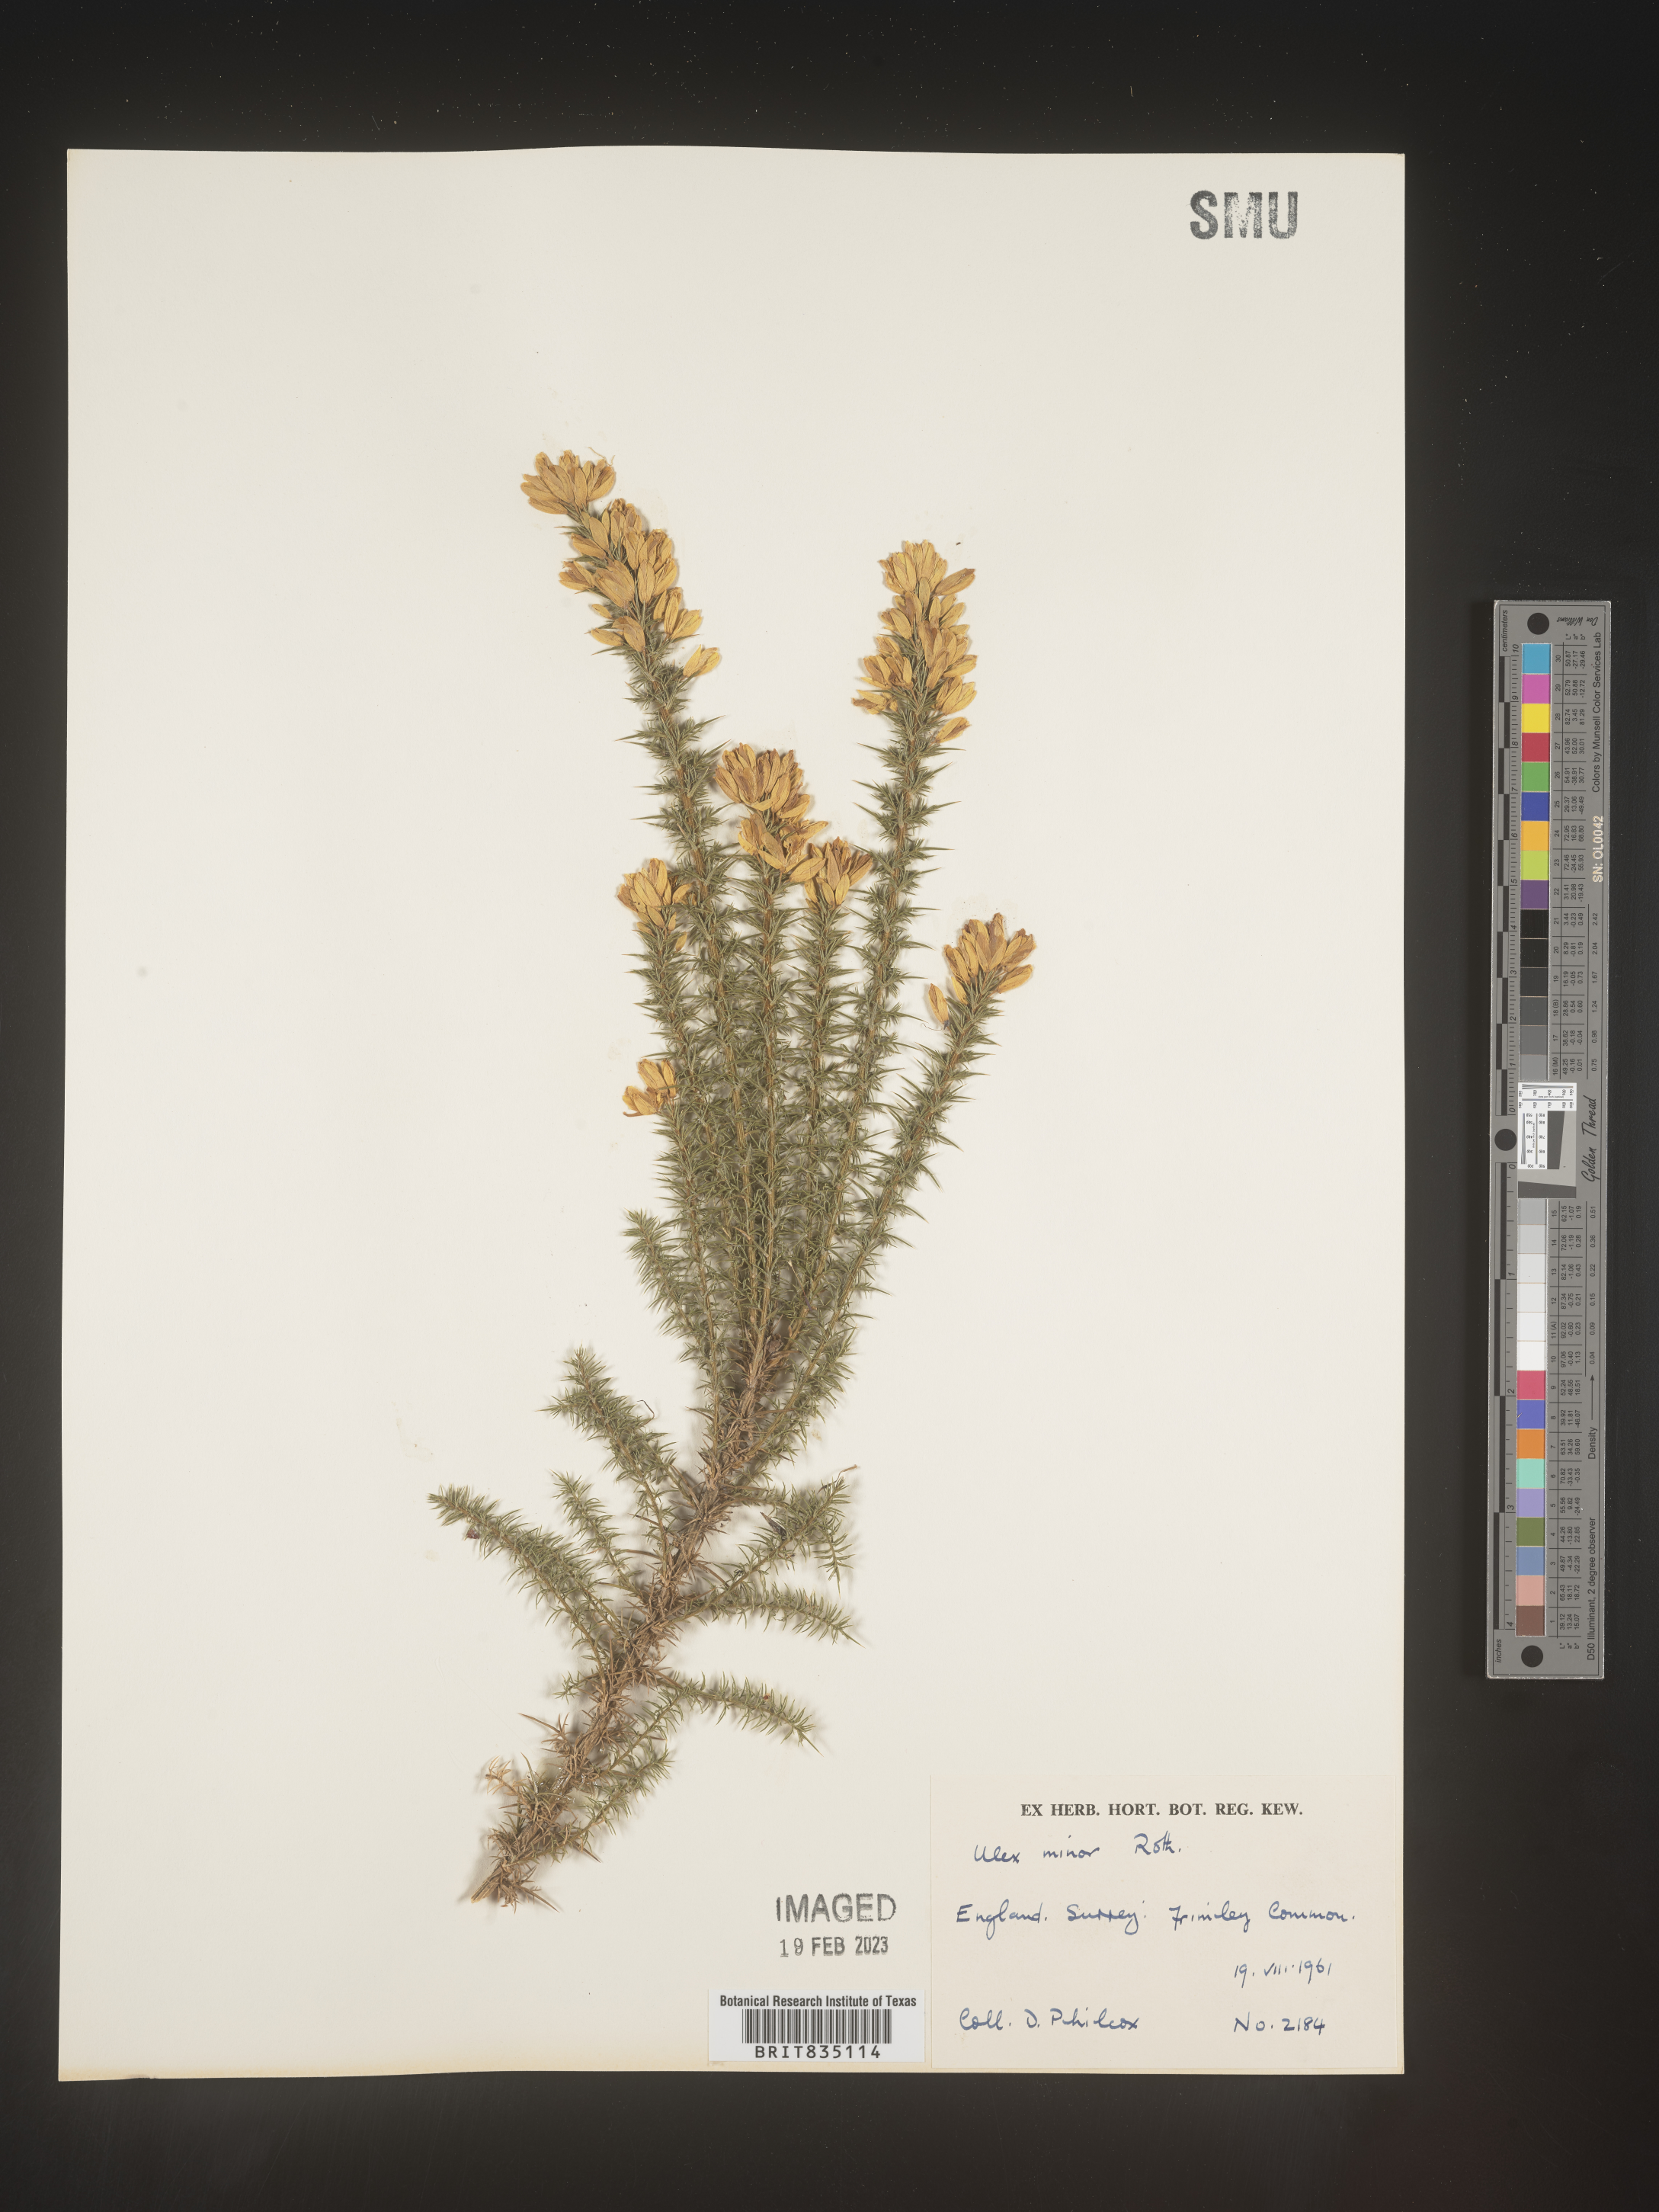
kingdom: Plantae
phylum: Tracheophyta
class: Magnoliopsida
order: Fabales
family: Fabaceae
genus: Ulex
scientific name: Ulex
